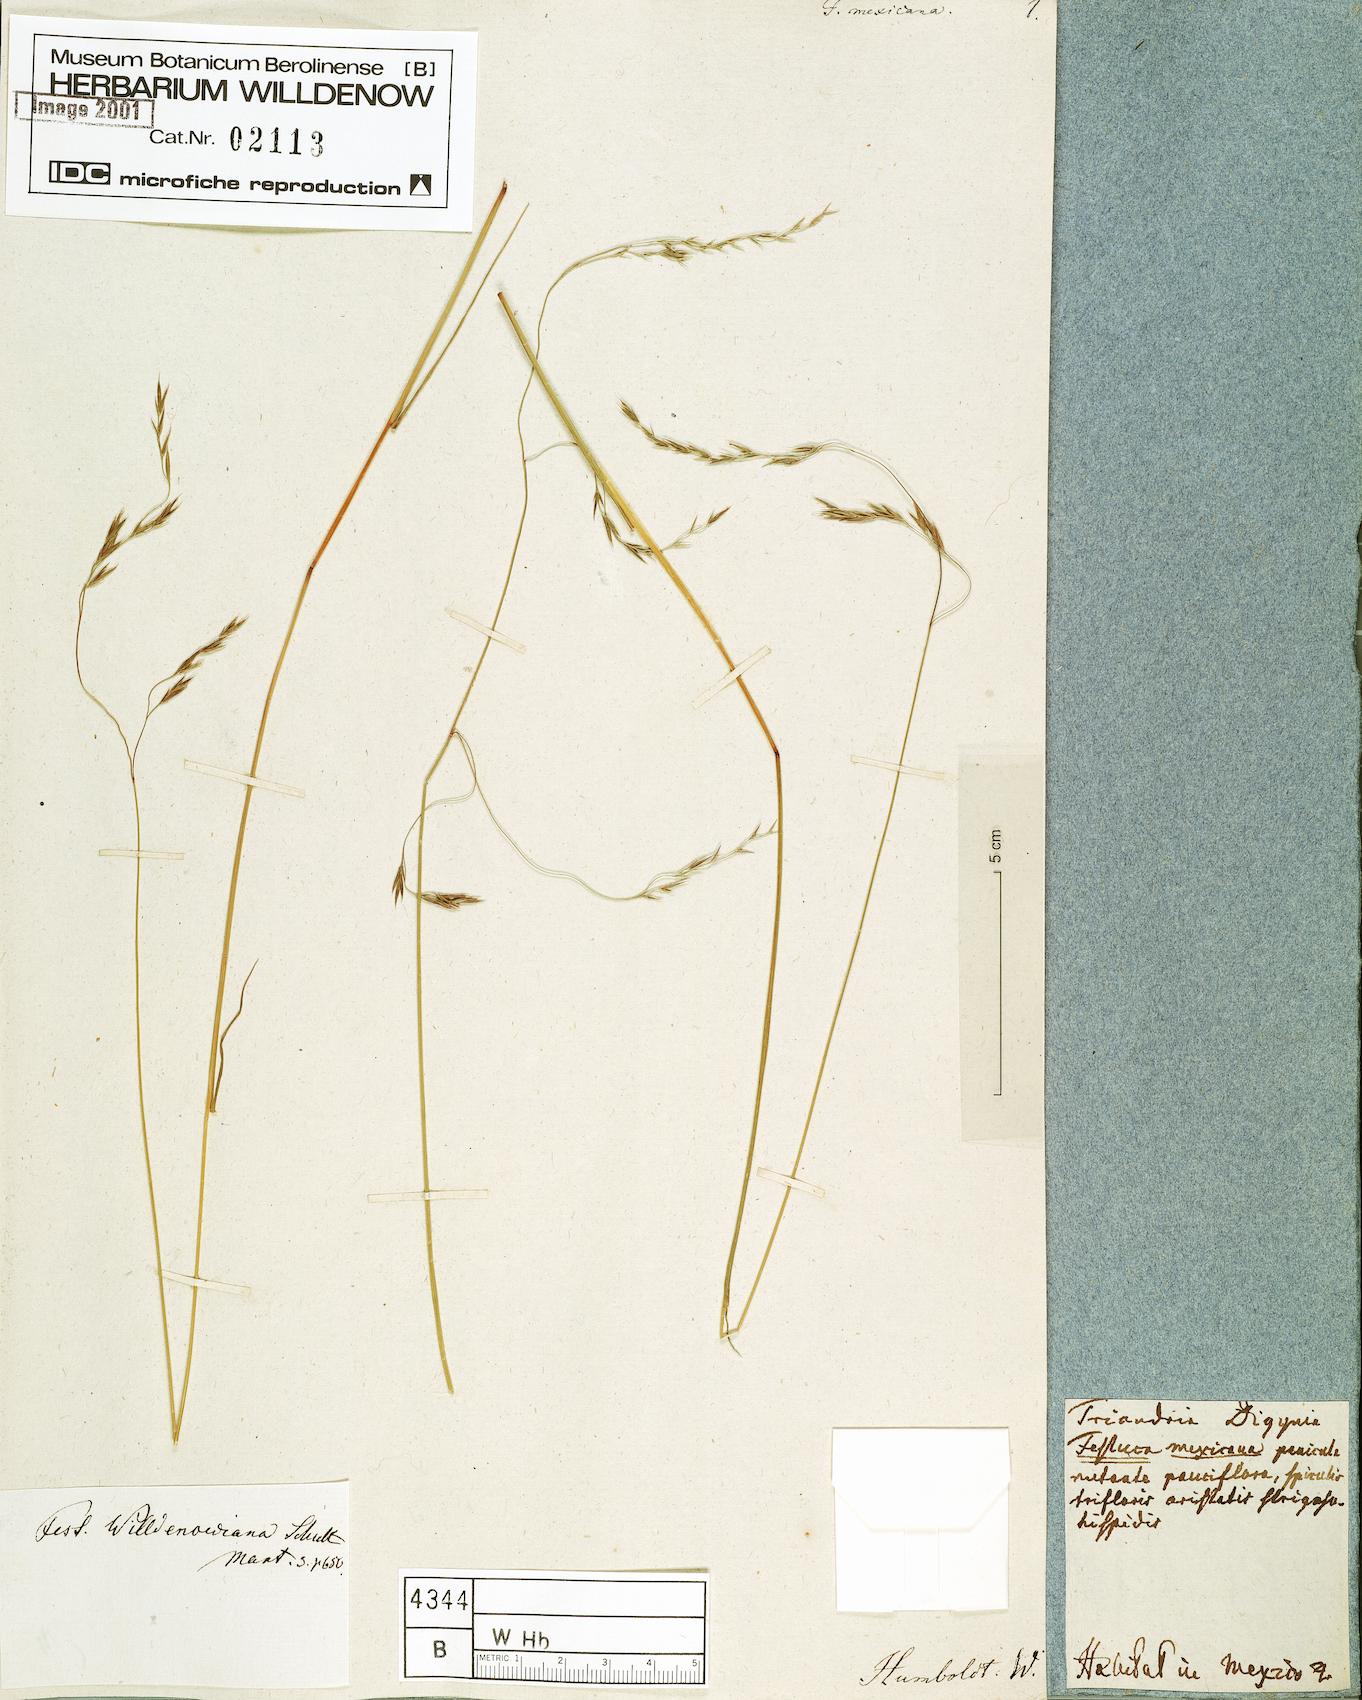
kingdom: Plantae
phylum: Tracheophyta
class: Liliopsida
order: Poales
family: Poaceae
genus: Festuca
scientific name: Festuca willdenowiana
